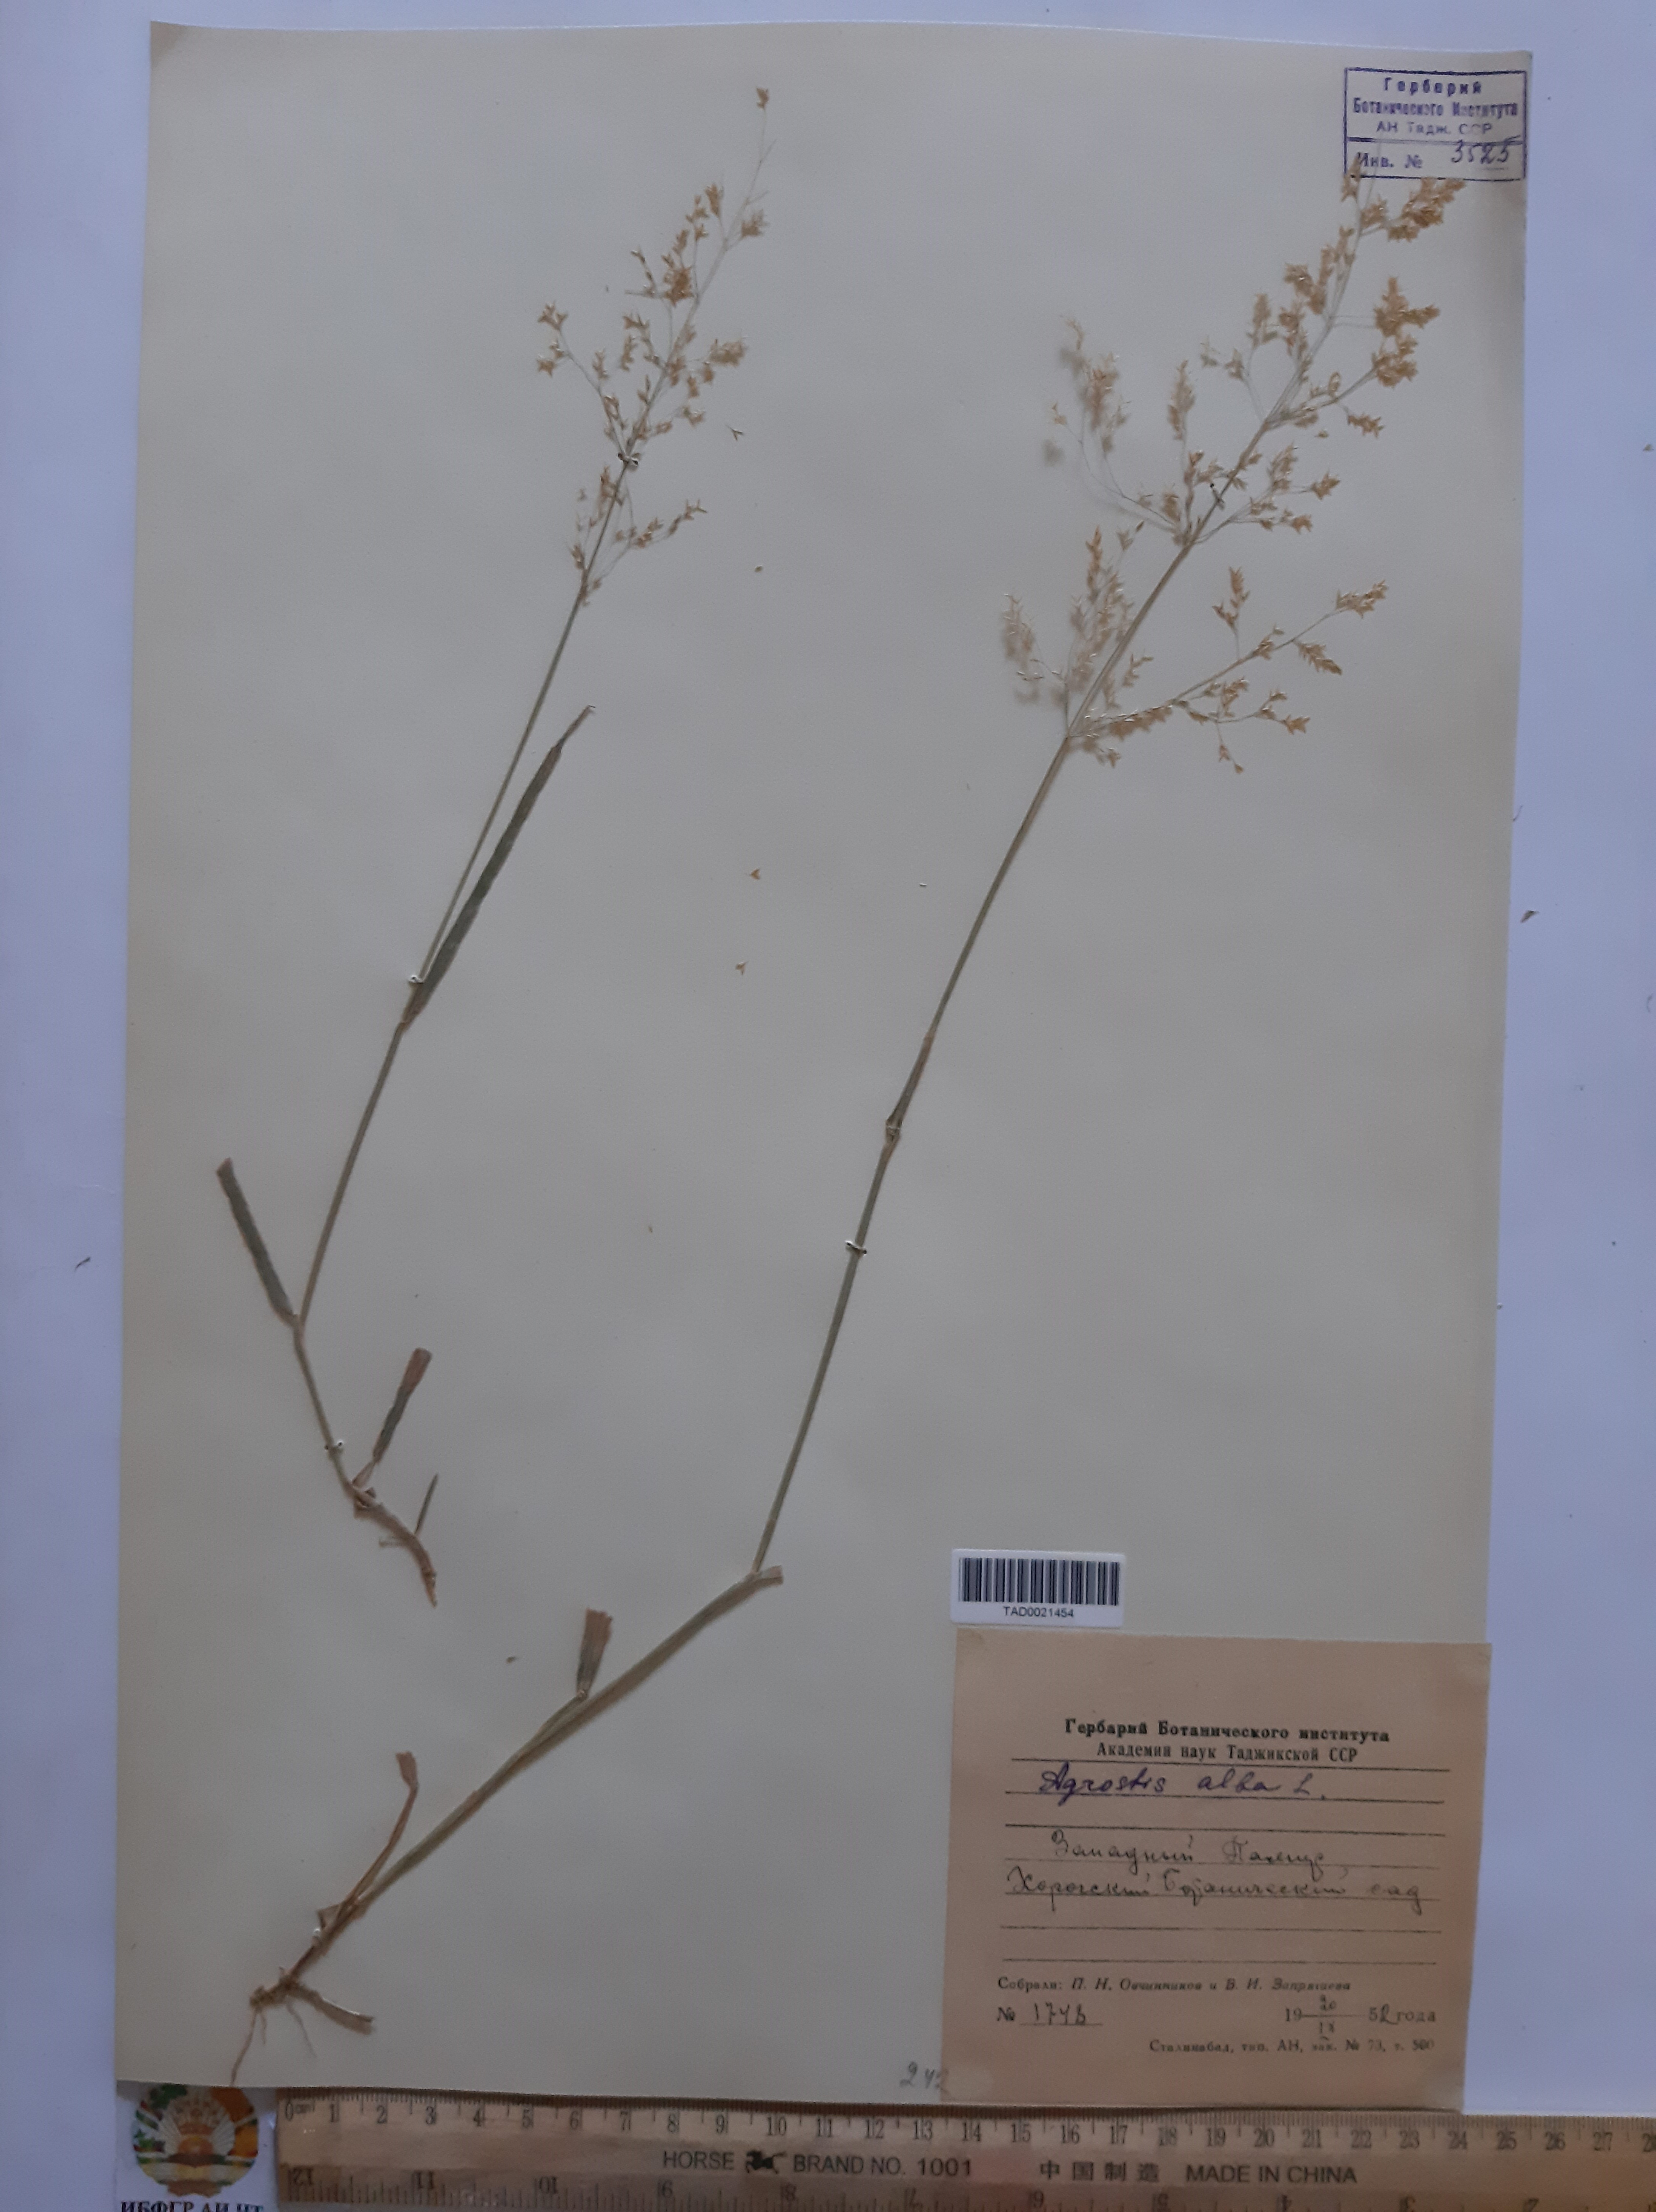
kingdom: Plantae
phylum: Tracheophyta
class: Liliopsida
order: Poales
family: Poaceae
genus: Poa
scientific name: Poa nemoralis
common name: Wood bluegrass
